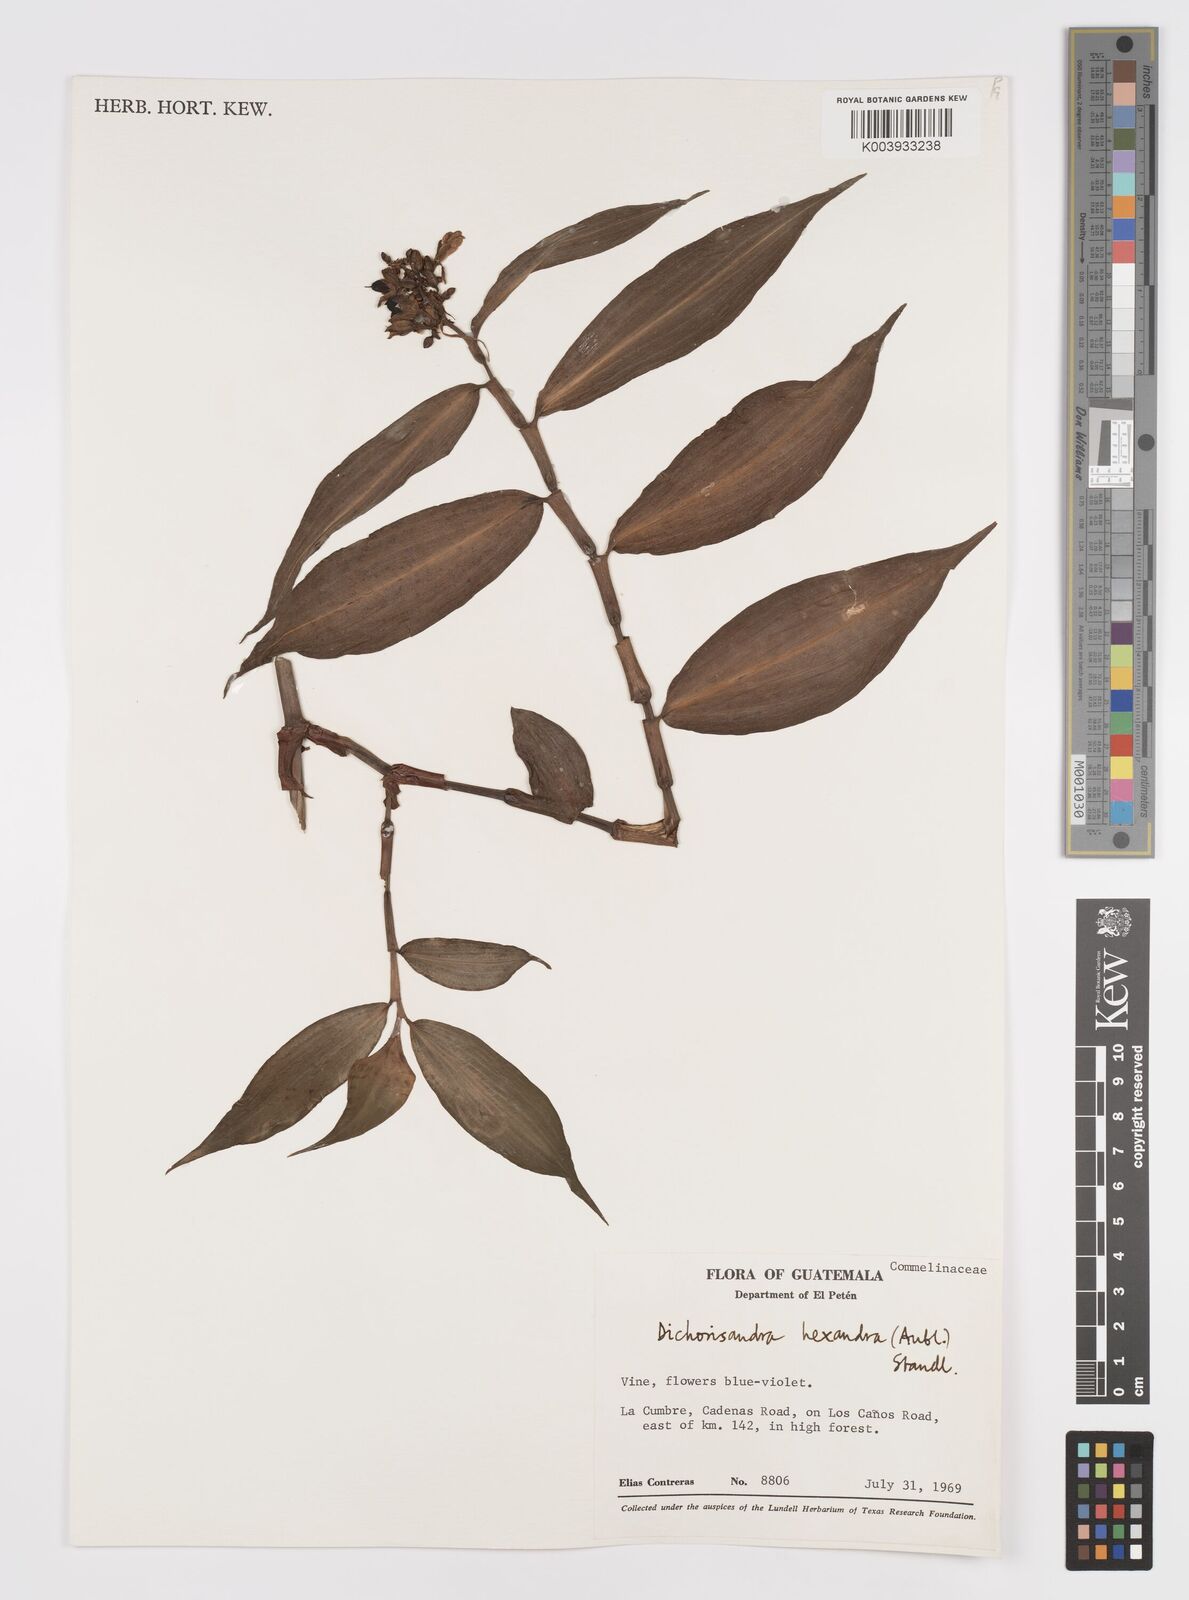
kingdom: Plantae
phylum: Tracheophyta
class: Liliopsida
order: Commelinales
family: Commelinaceae
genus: Dichorisandra
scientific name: Dichorisandra hexandra
